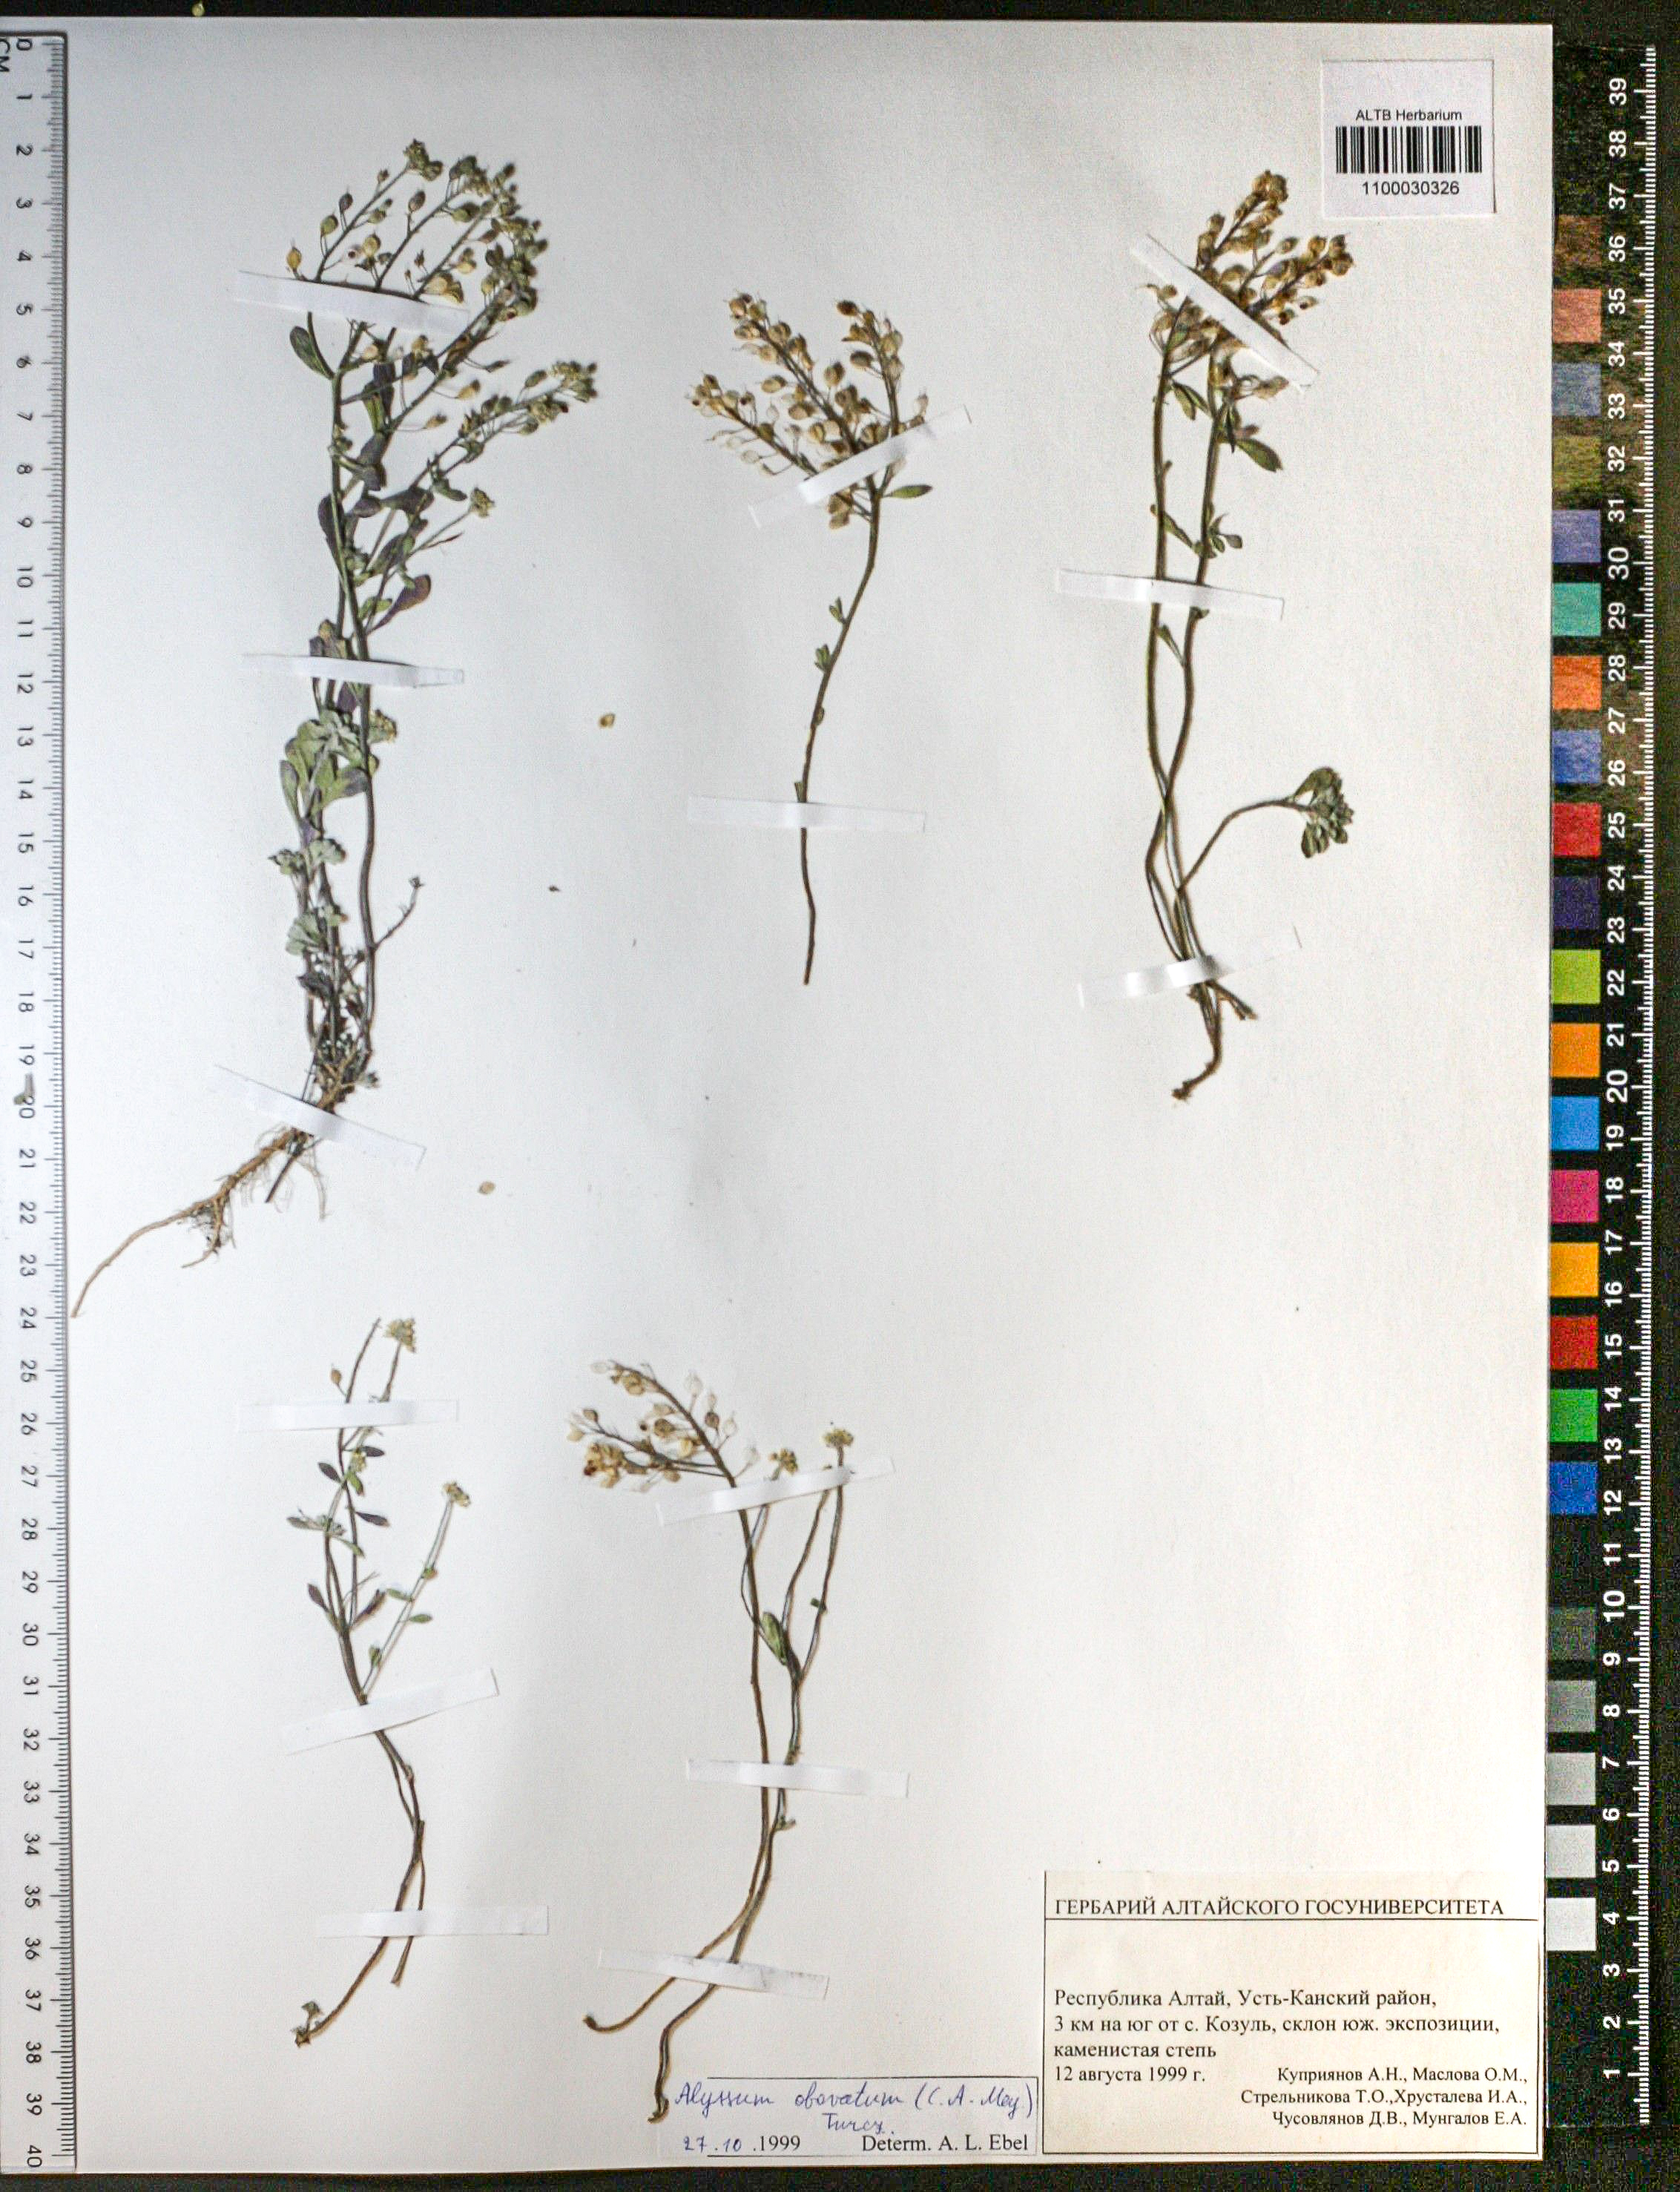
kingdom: Plantae
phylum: Tracheophyta
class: Magnoliopsida
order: Brassicales
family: Brassicaceae
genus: Odontarrhena
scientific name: Odontarrhena obovata
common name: American alyssum
